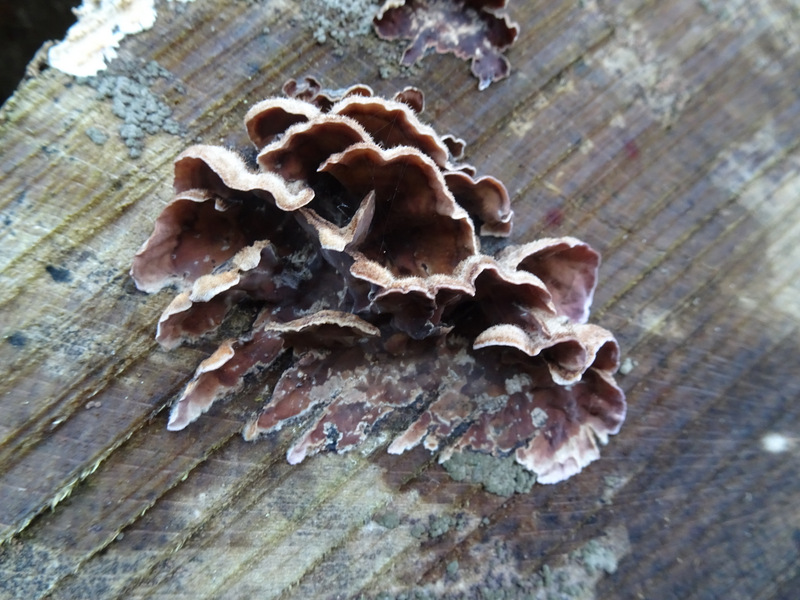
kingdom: Fungi
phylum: Basidiomycota
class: Agaricomycetes
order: Agaricales
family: Cyphellaceae
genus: Chondrostereum
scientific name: Chondrostereum purpureum
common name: purpurlædersvamp
